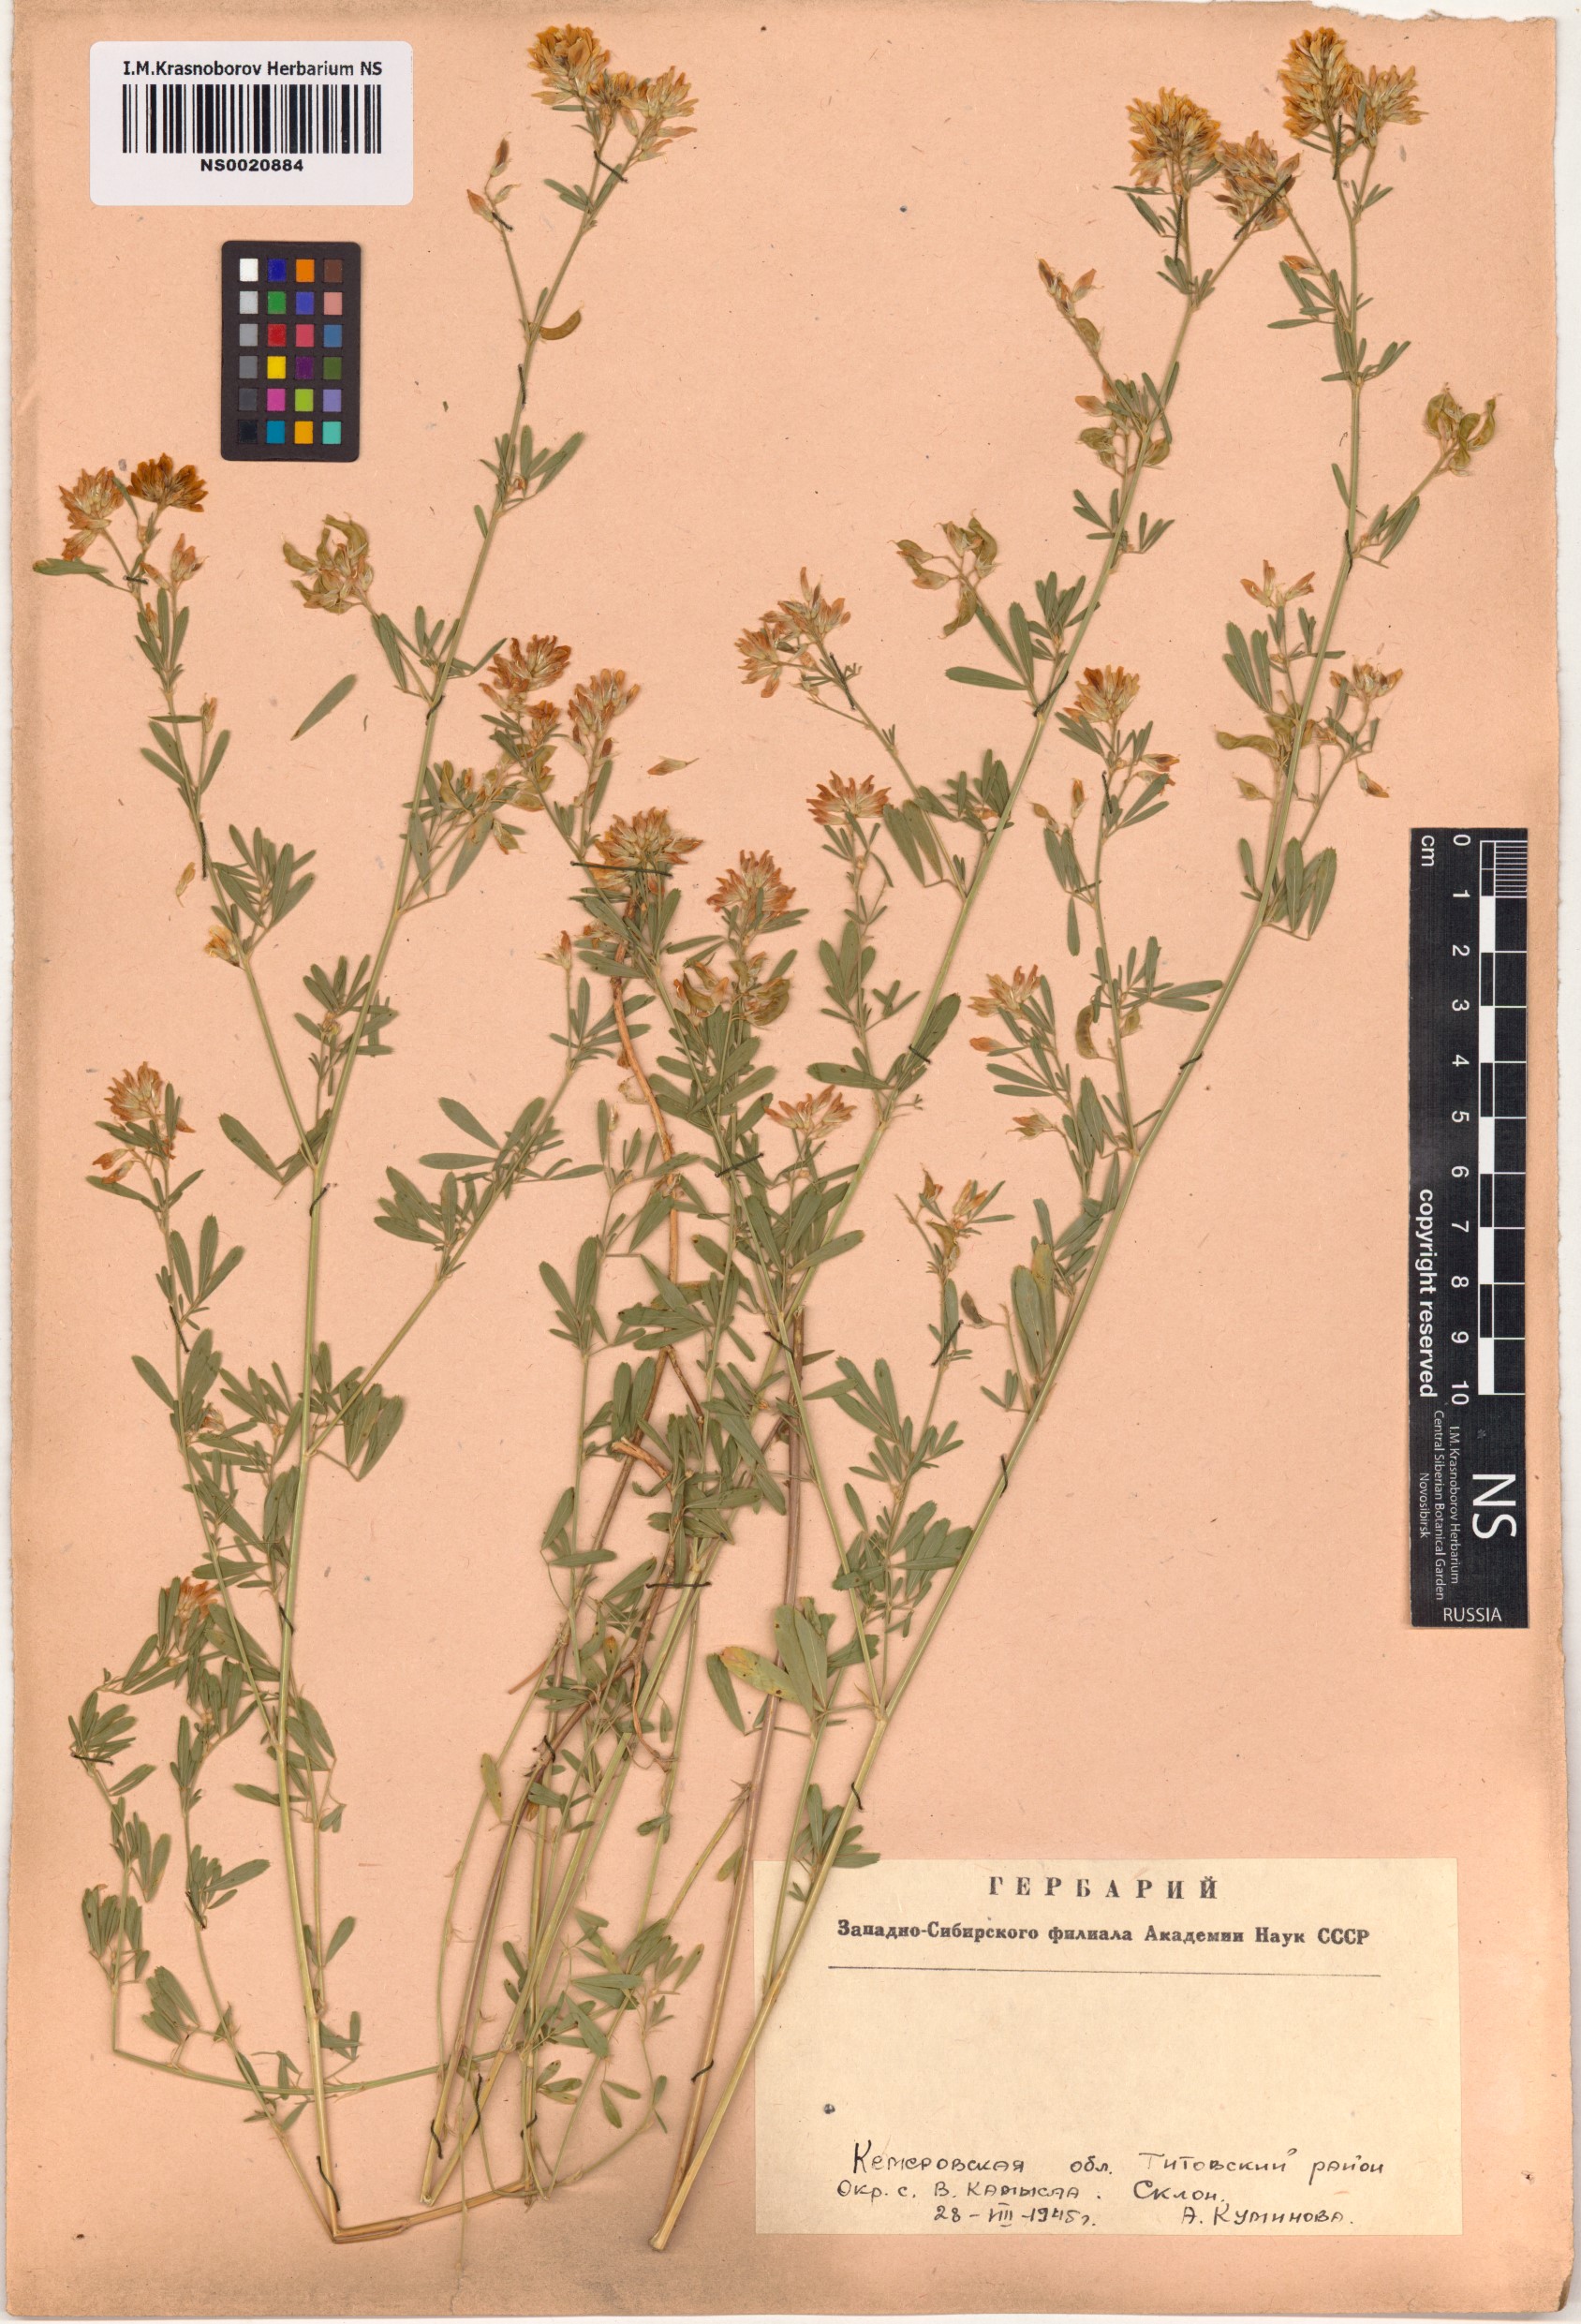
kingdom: Plantae
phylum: Tracheophyta
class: Magnoliopsida
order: Fabales
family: Fabaceae
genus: Medicago
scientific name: Medicago falcata
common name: Sickle medick
